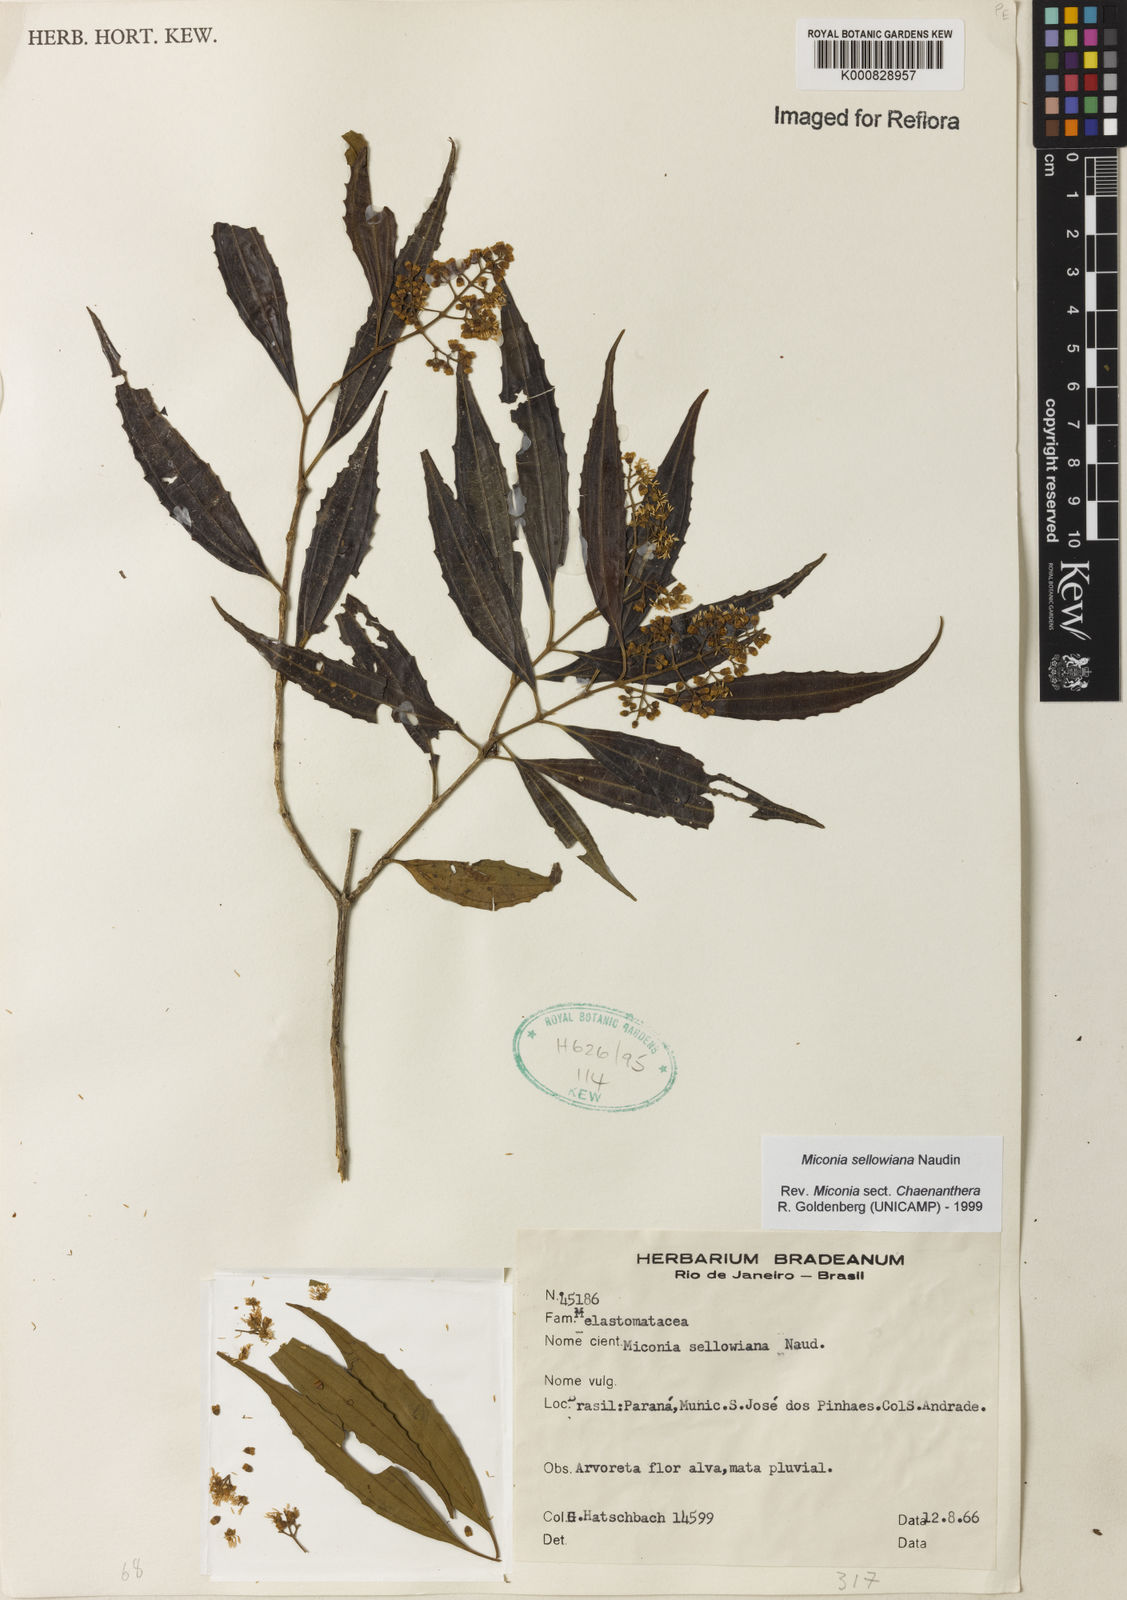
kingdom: Plantae
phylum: Tracheophyta
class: Magnoliopsida
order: Myrtales
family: Melastomataceae
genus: Miconia
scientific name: Miconia sellowiana
